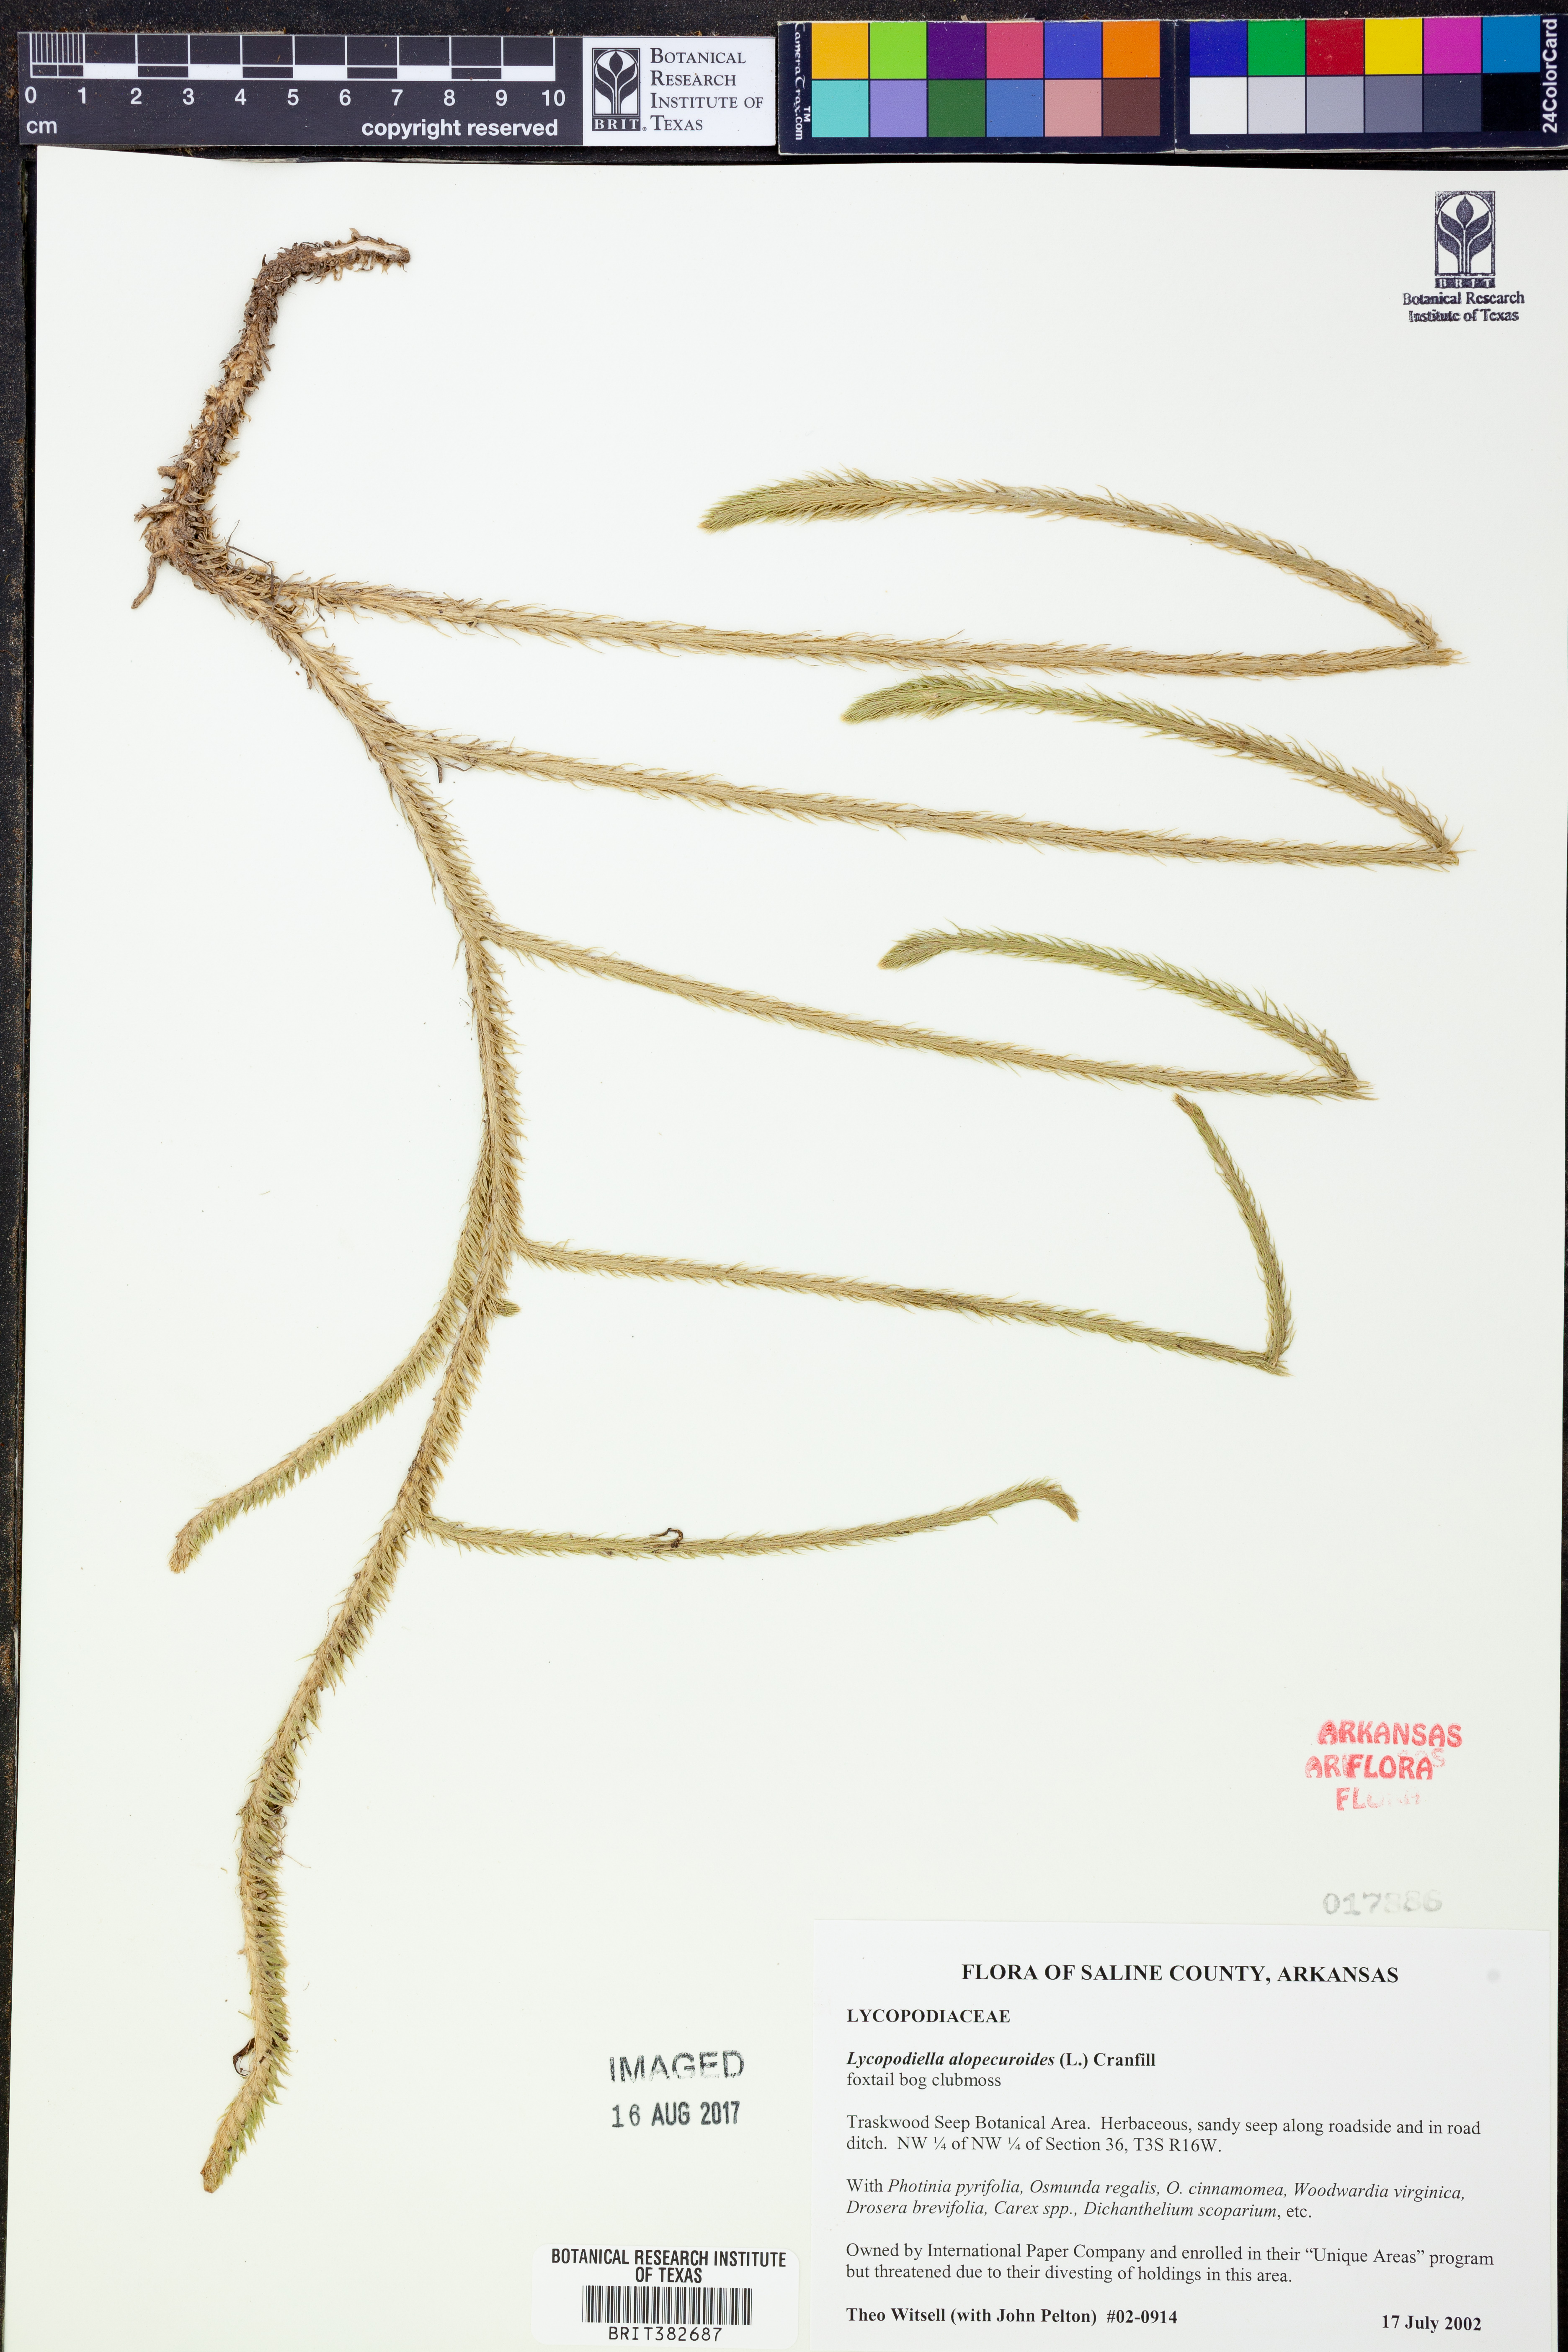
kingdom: Plantae
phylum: Tracheophyta
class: Lycopodiopsida
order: Lycopodiales
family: Lycopodiaceae
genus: Lycopodiella
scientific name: Lycopodiella alopecuroides
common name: Foxtail clubmoss
